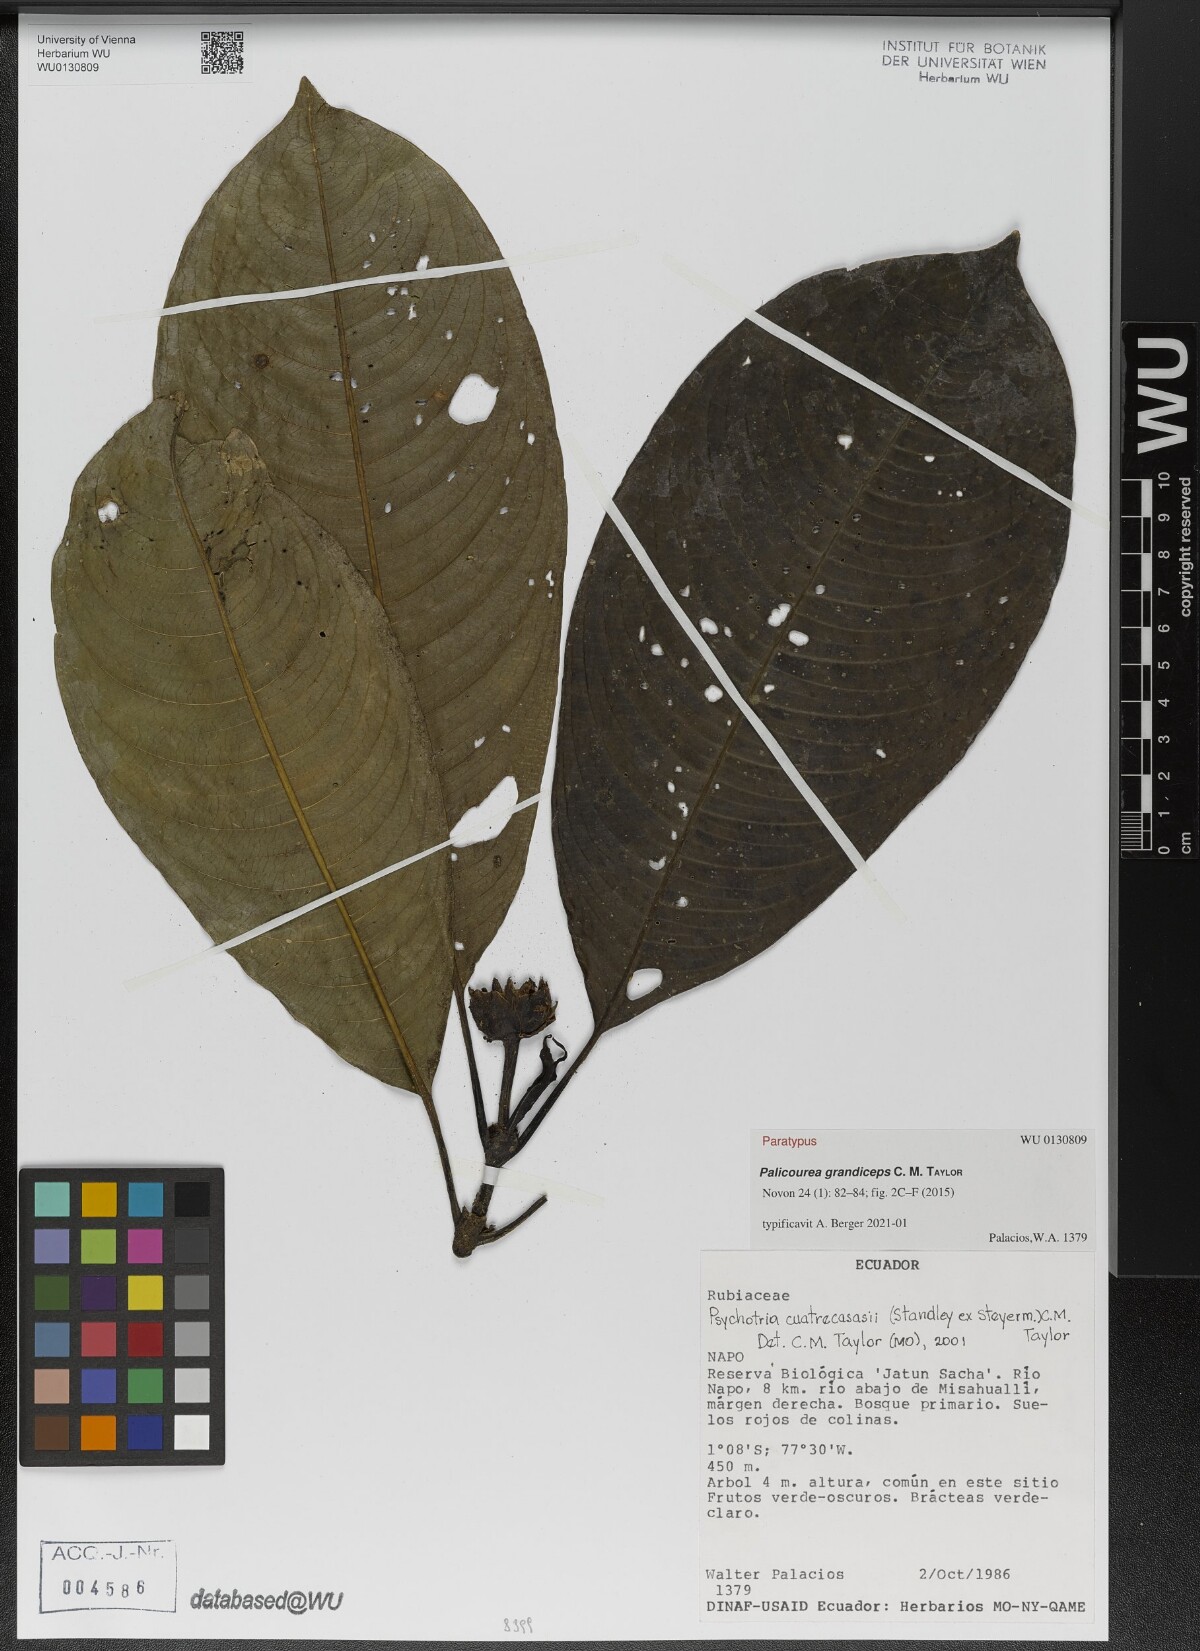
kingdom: Plantae
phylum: Tracheophyta
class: Magnoliopsida
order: Gentianales
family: Rubiaceae
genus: Palicourea
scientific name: Palicourea grandiceps
